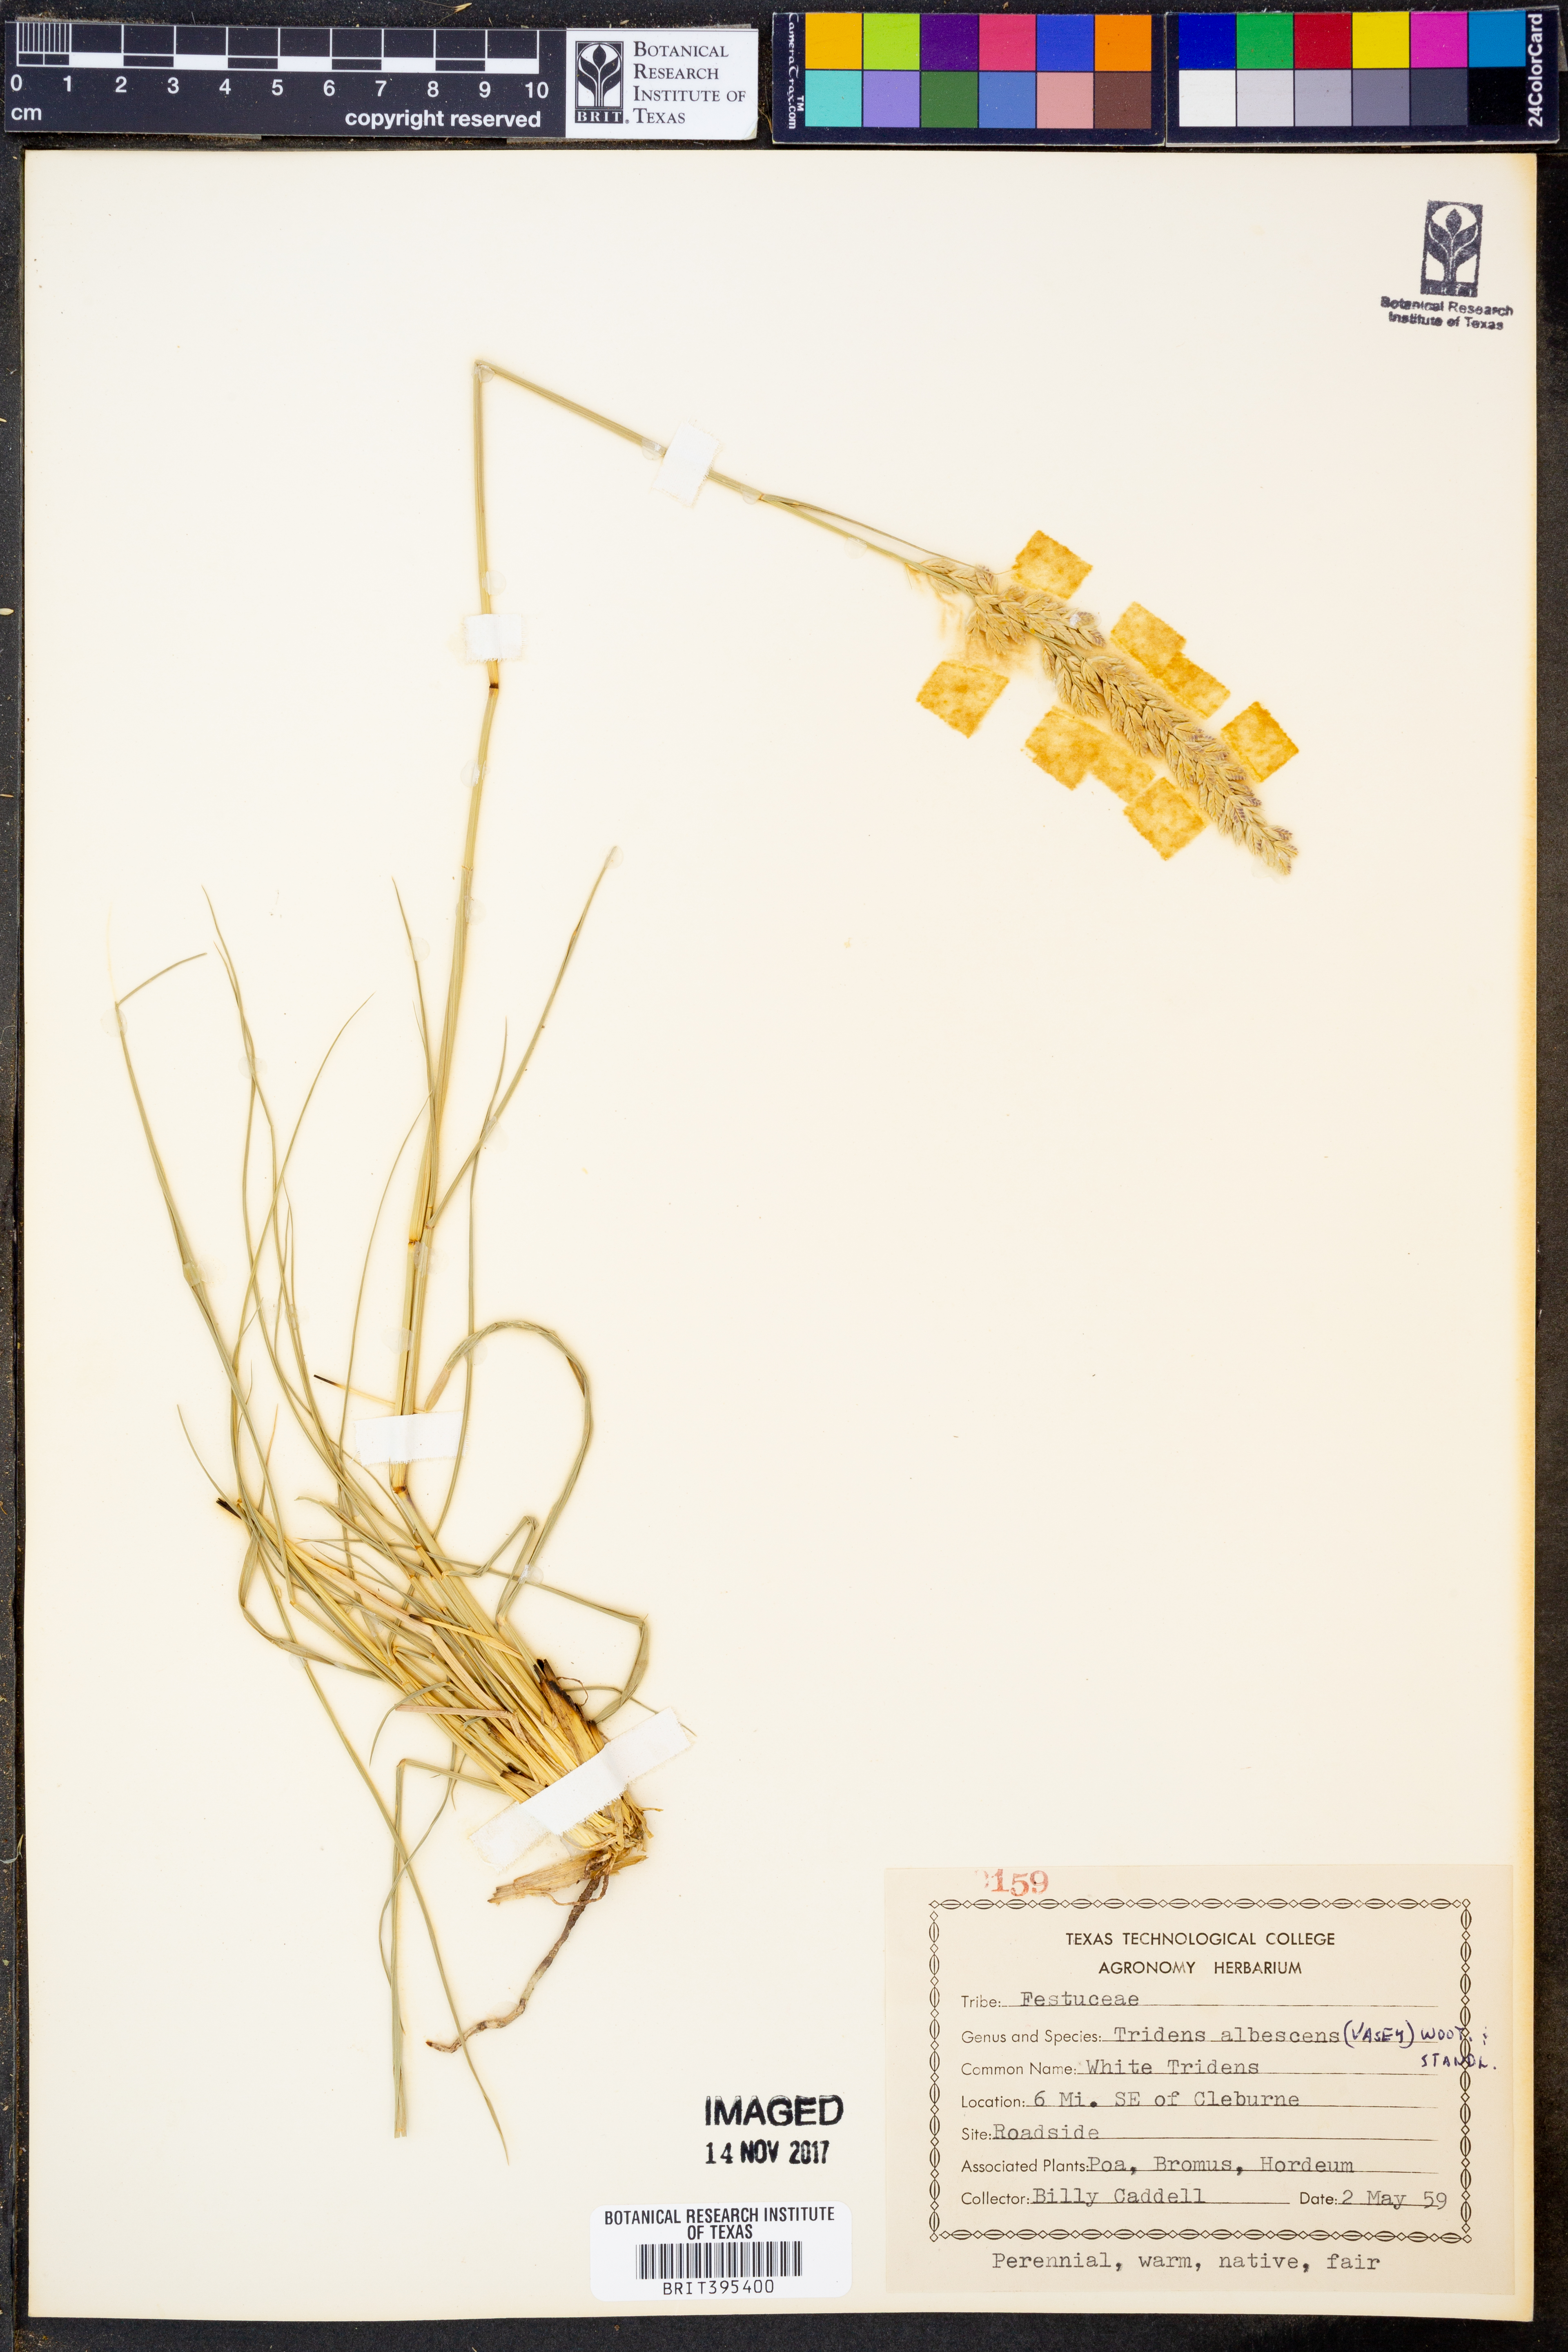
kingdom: Plantae
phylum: Tracheophyta
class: Liliopsida
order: Poales
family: Poaceae
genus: Tridens
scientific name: Tridens albescens
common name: White tridens
